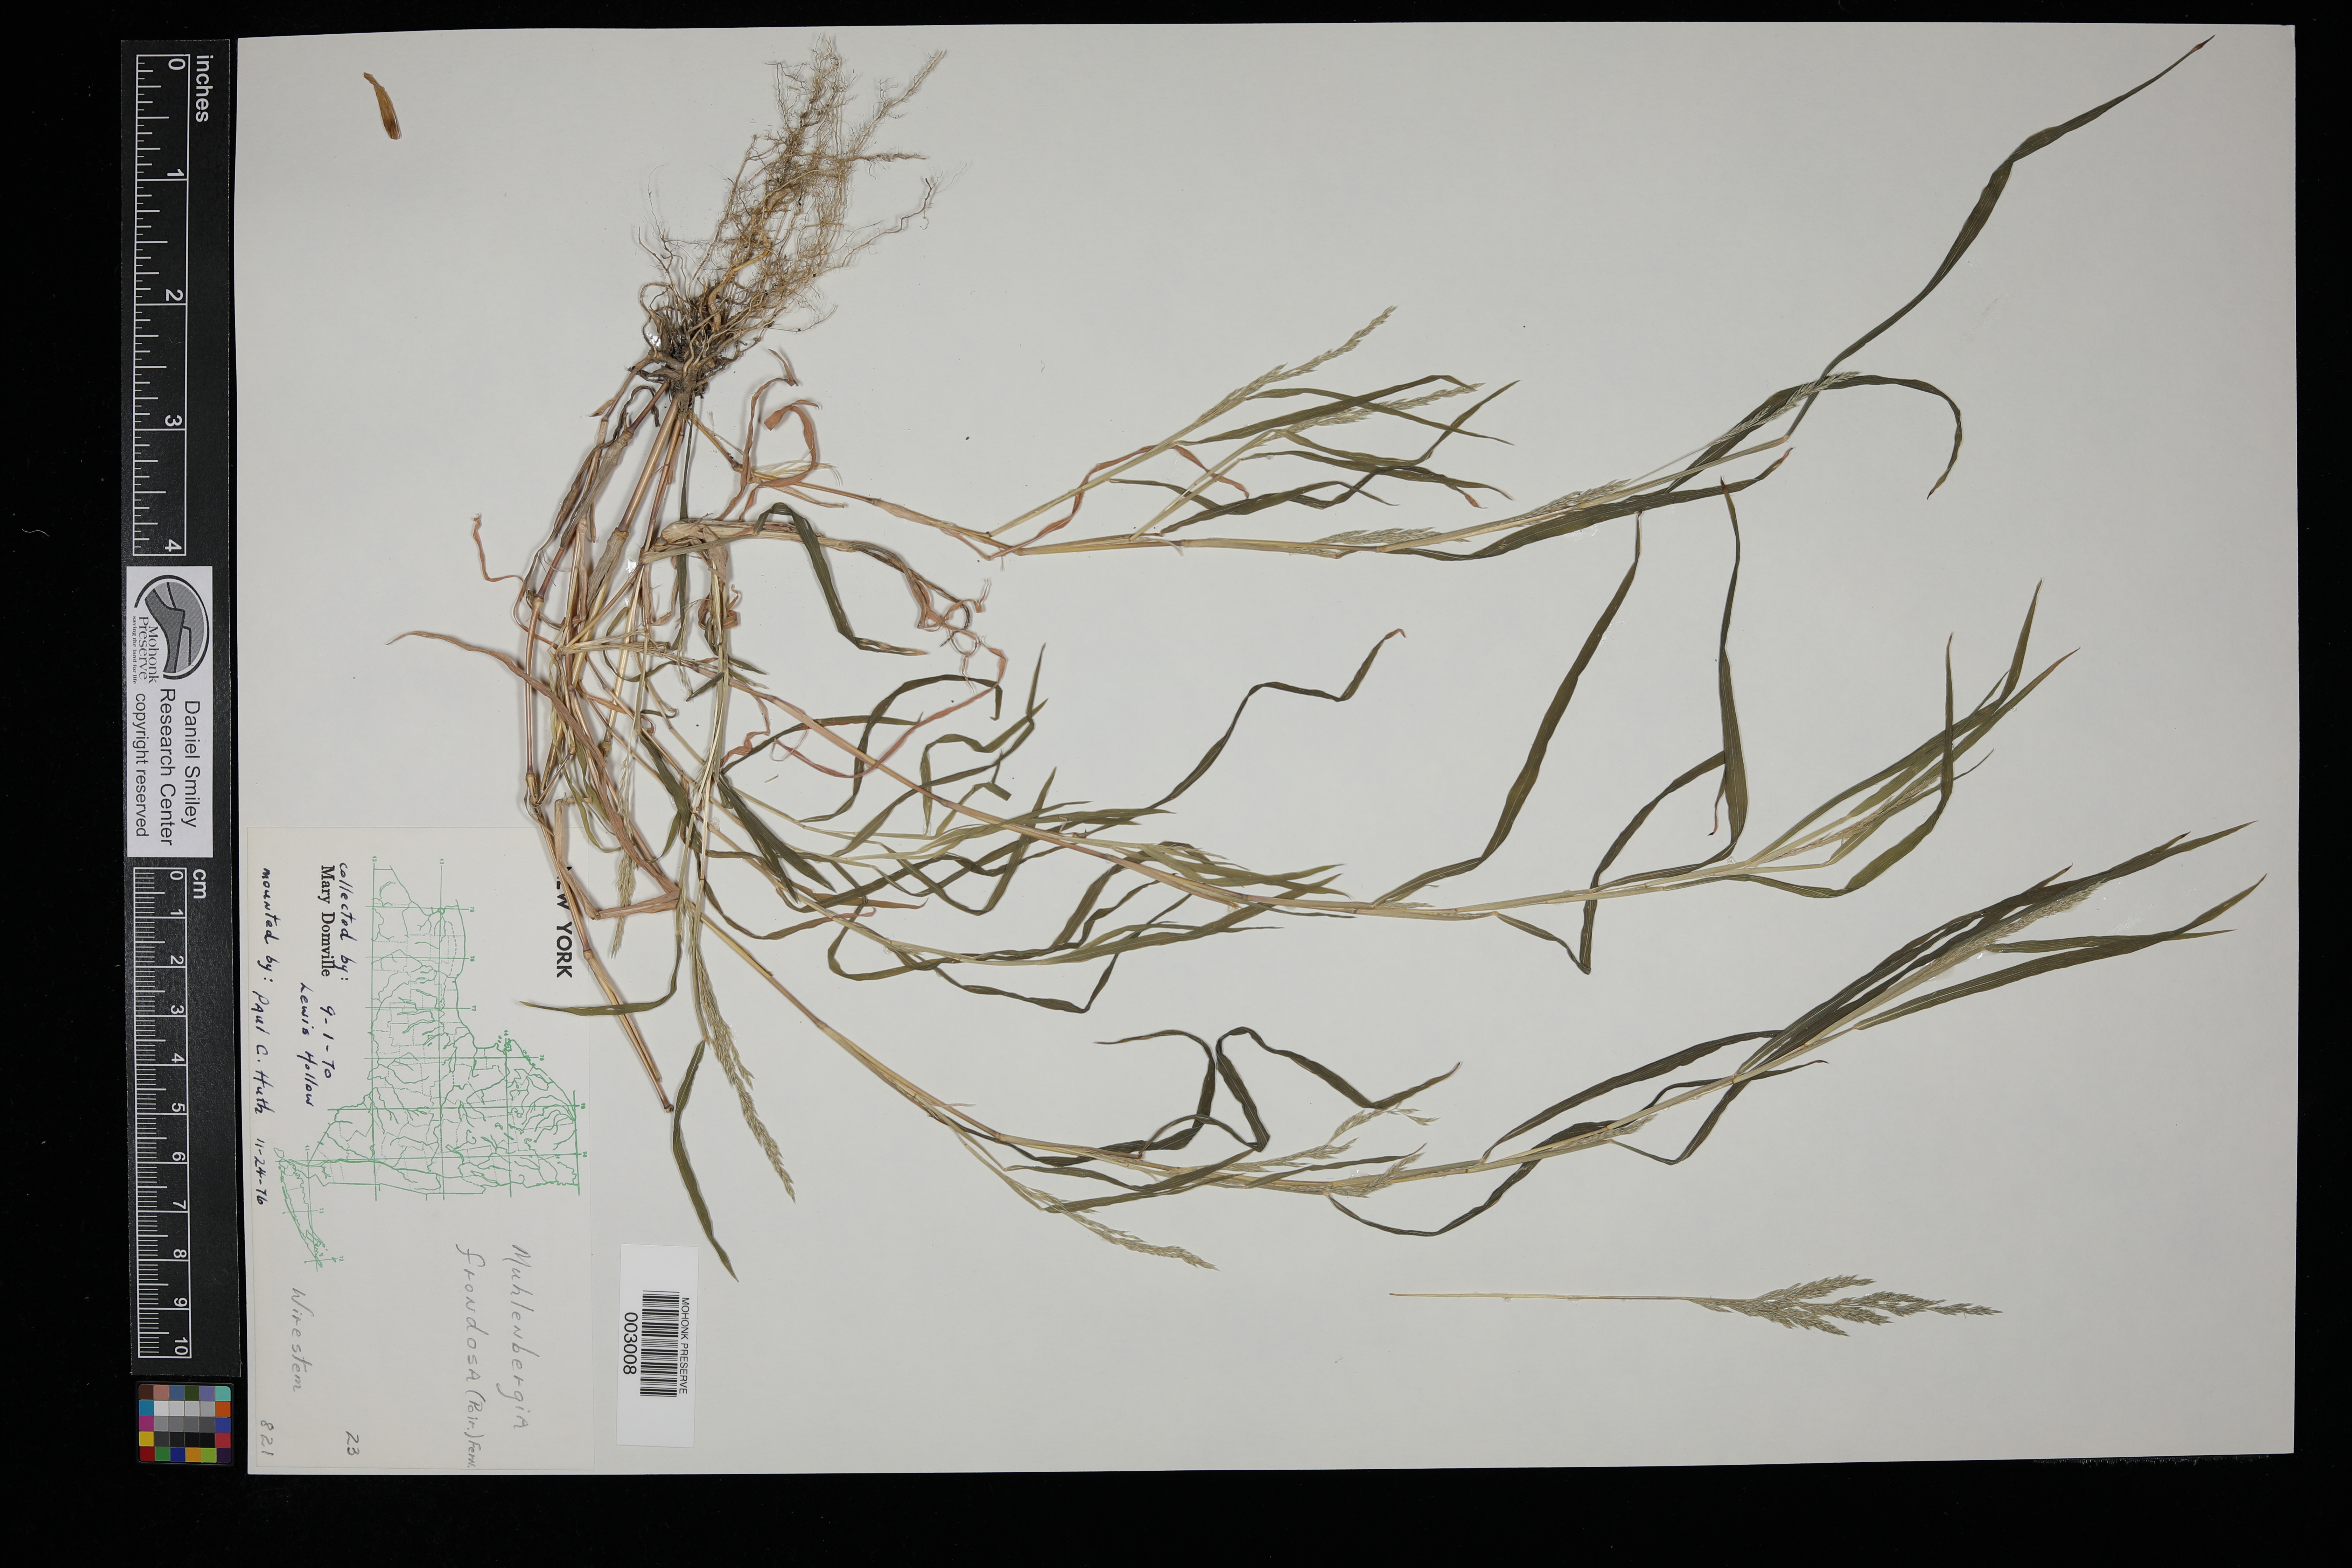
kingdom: Plantae
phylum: Tracheophyta
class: Liliopsida
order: Poales
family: Poaceae
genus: Muhlenbergia
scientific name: Muhlenbergia frondosa
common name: Common satingrass
